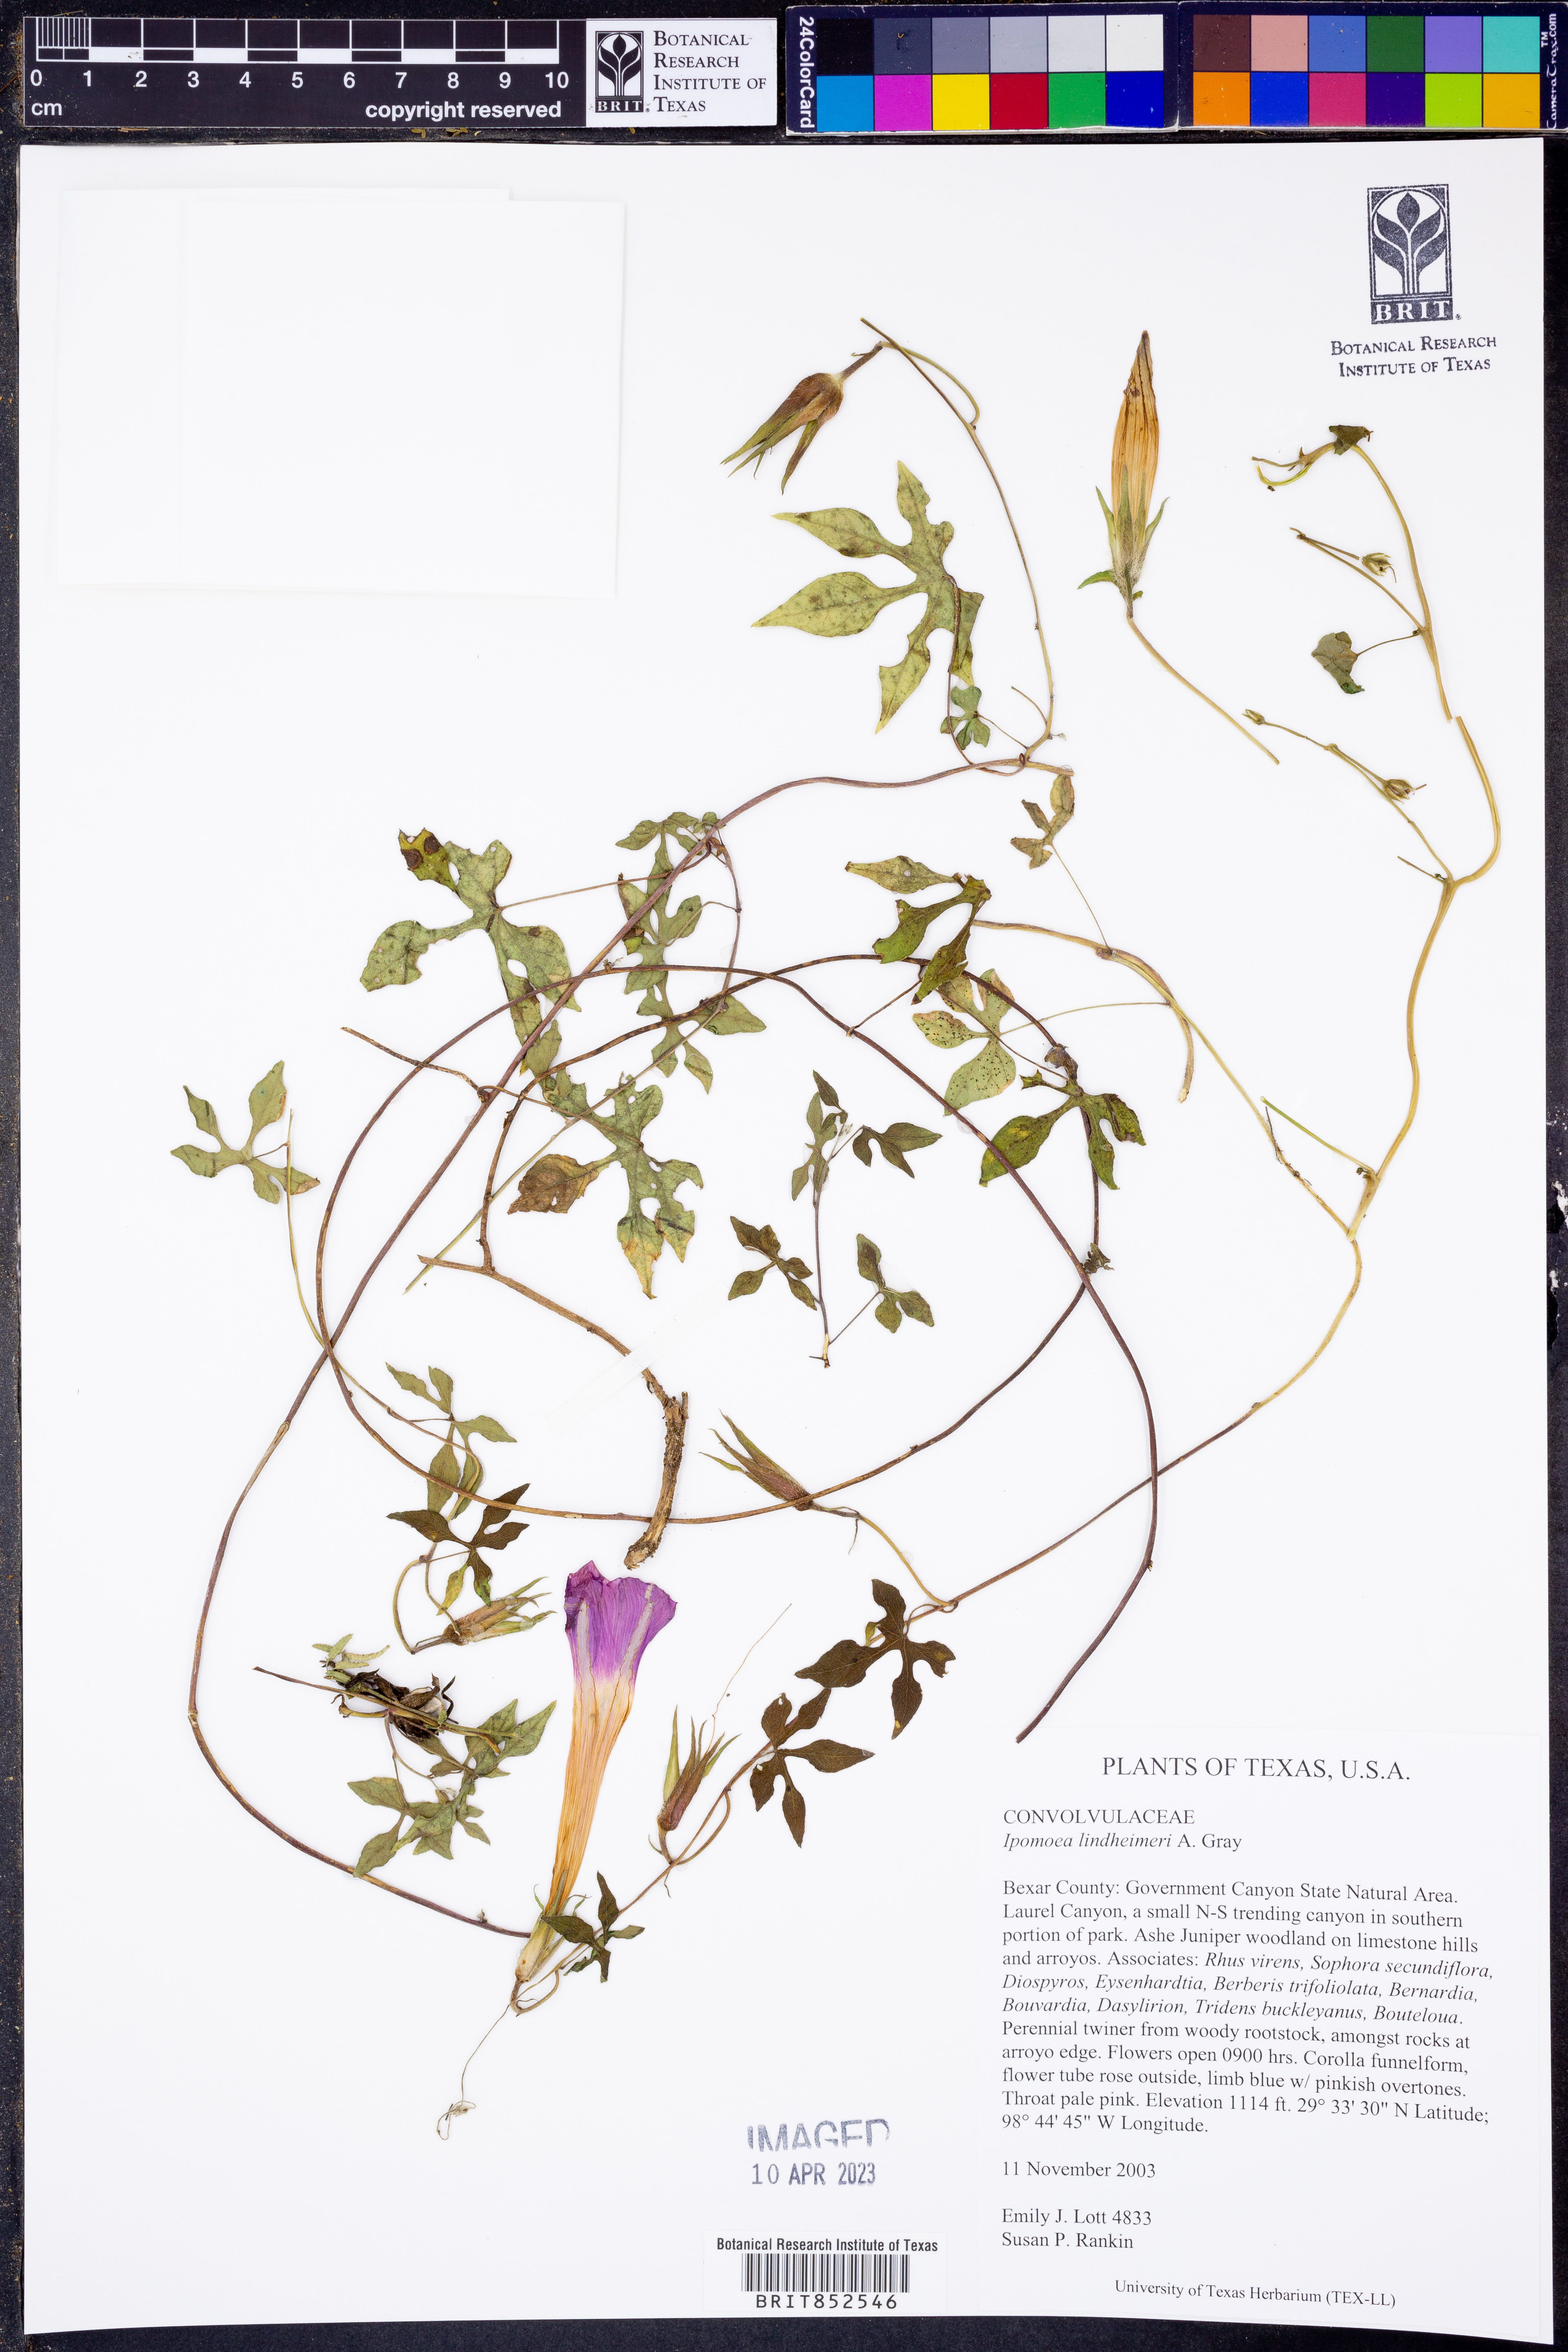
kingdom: Plantae
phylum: Tracheophyta
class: Magnoliopsida
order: Solanales
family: Convolvulaceae
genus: Ipomoea
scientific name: Ipomoea lindheimeri
